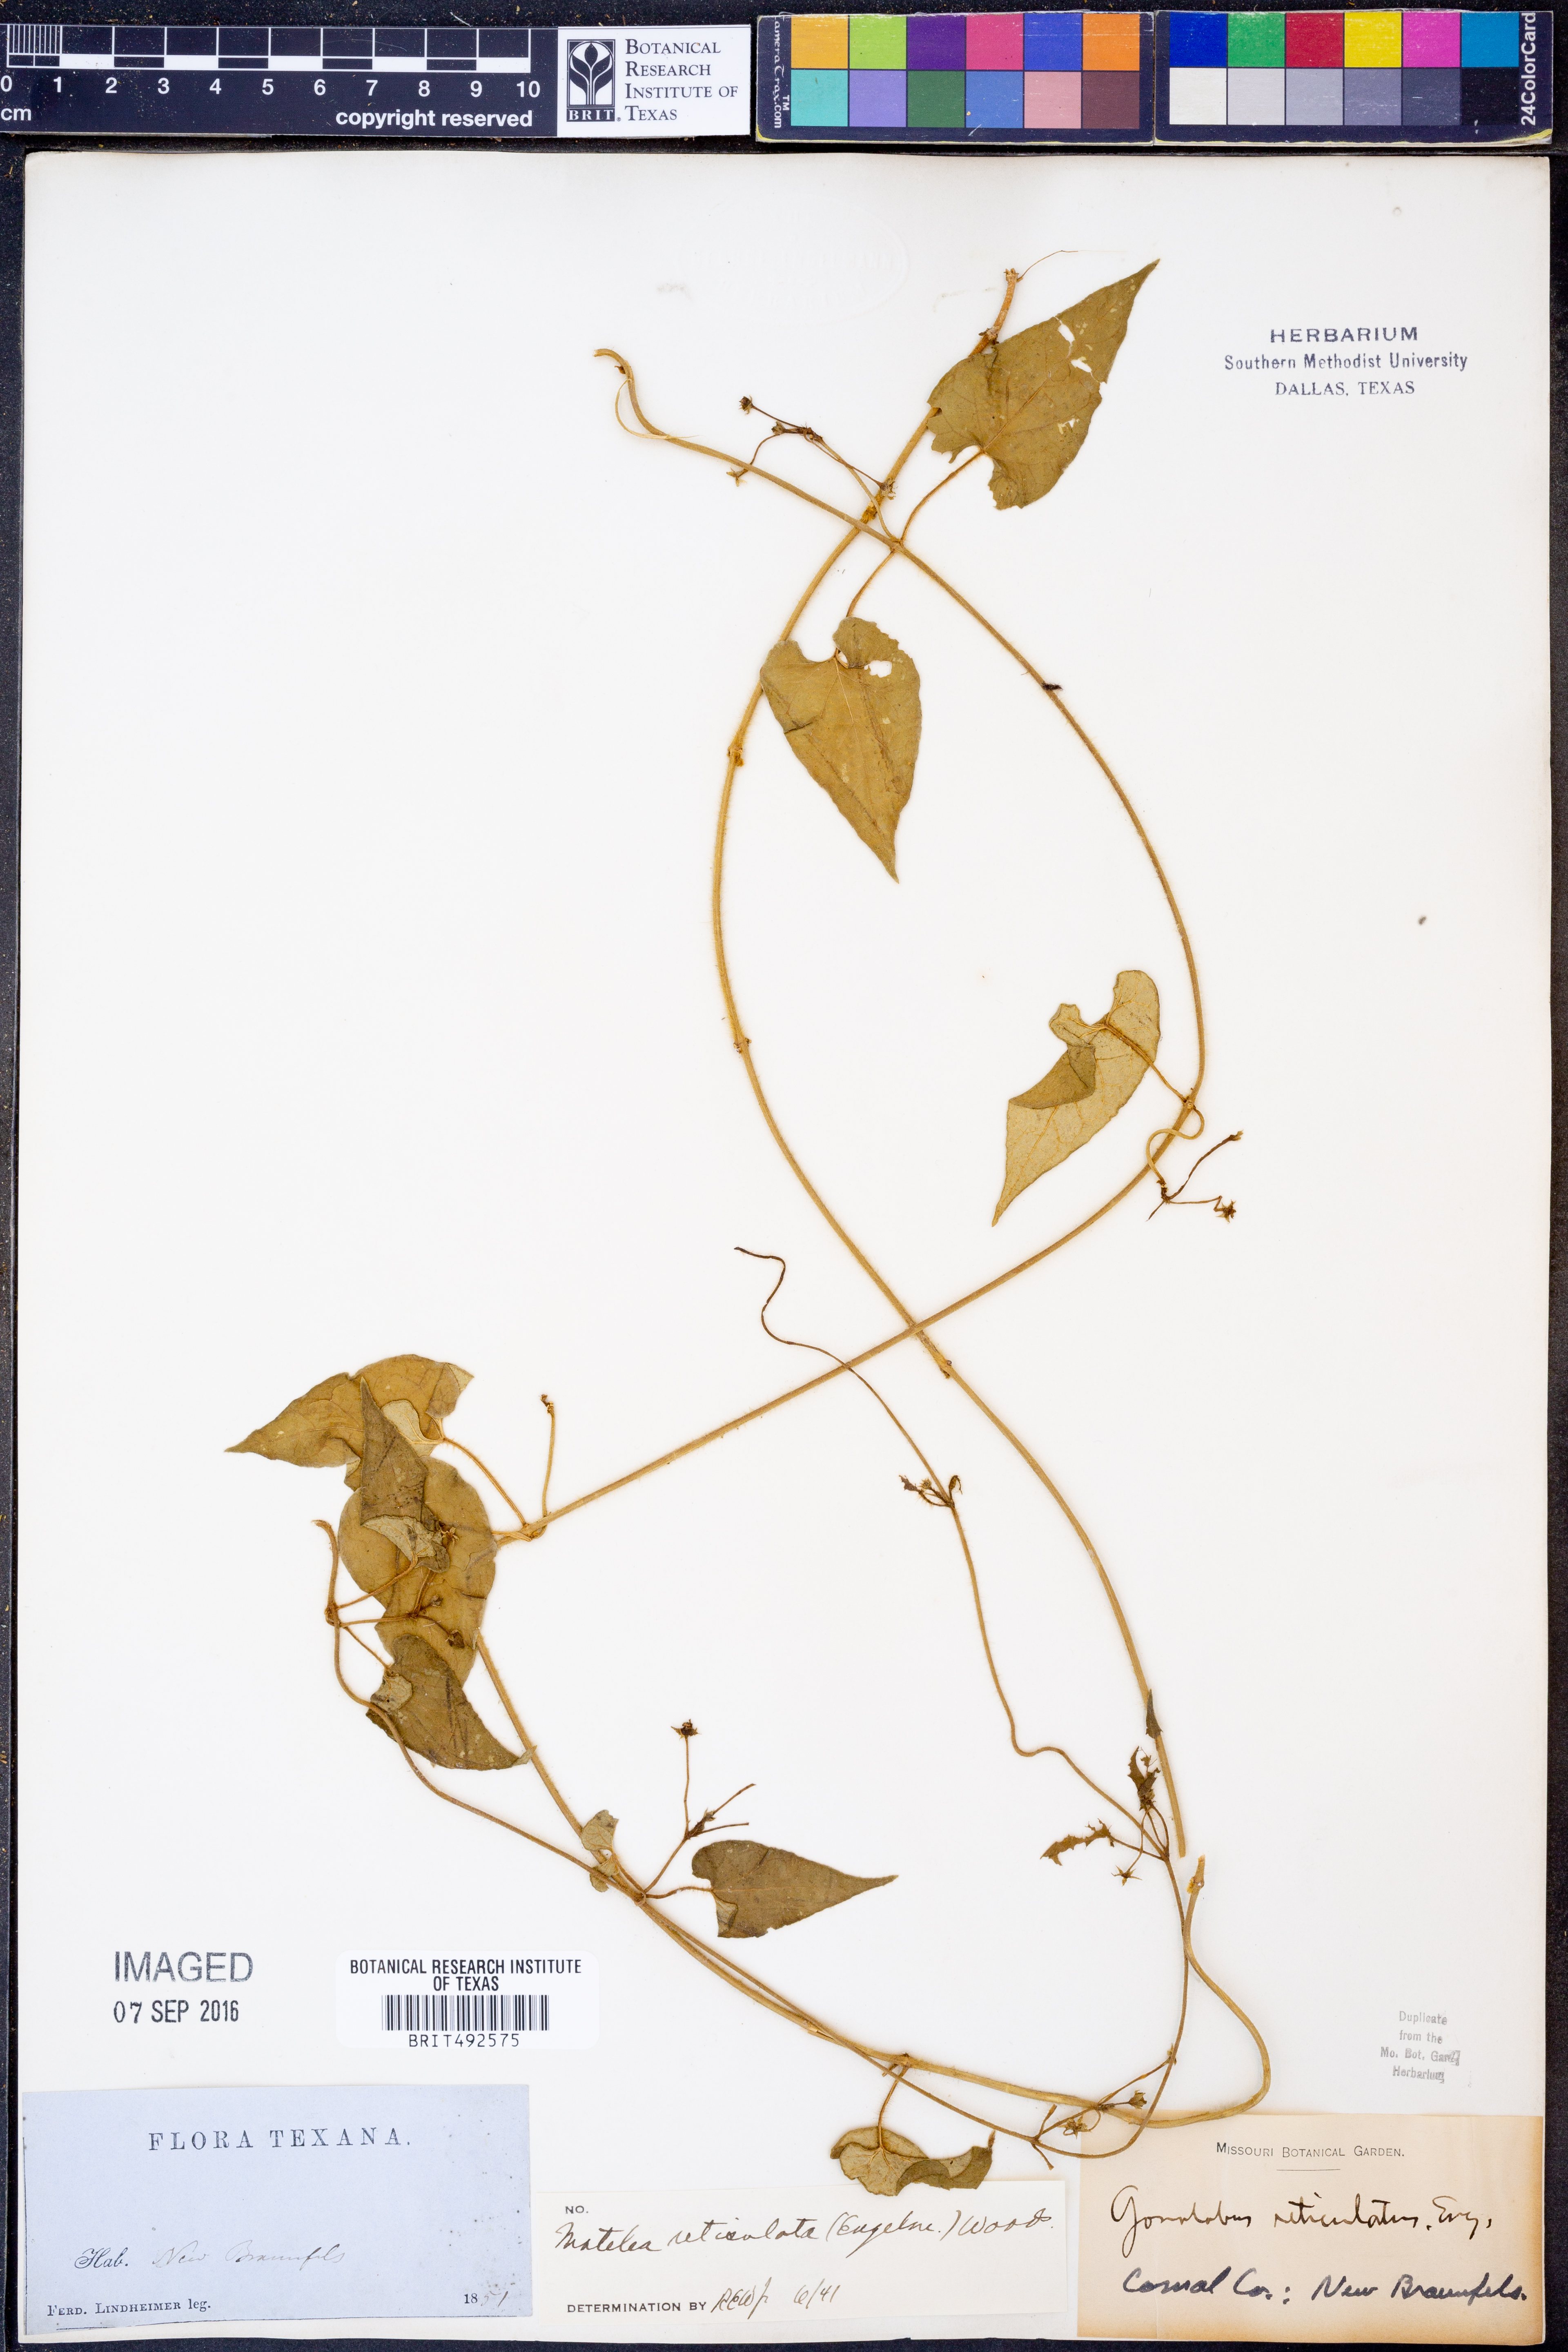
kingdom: Plantae
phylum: Tracheophyta
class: Magnoliopsida
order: Gentianales
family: Apocynaceae
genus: Dictyanthus
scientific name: Dictyanthus reticulatus
